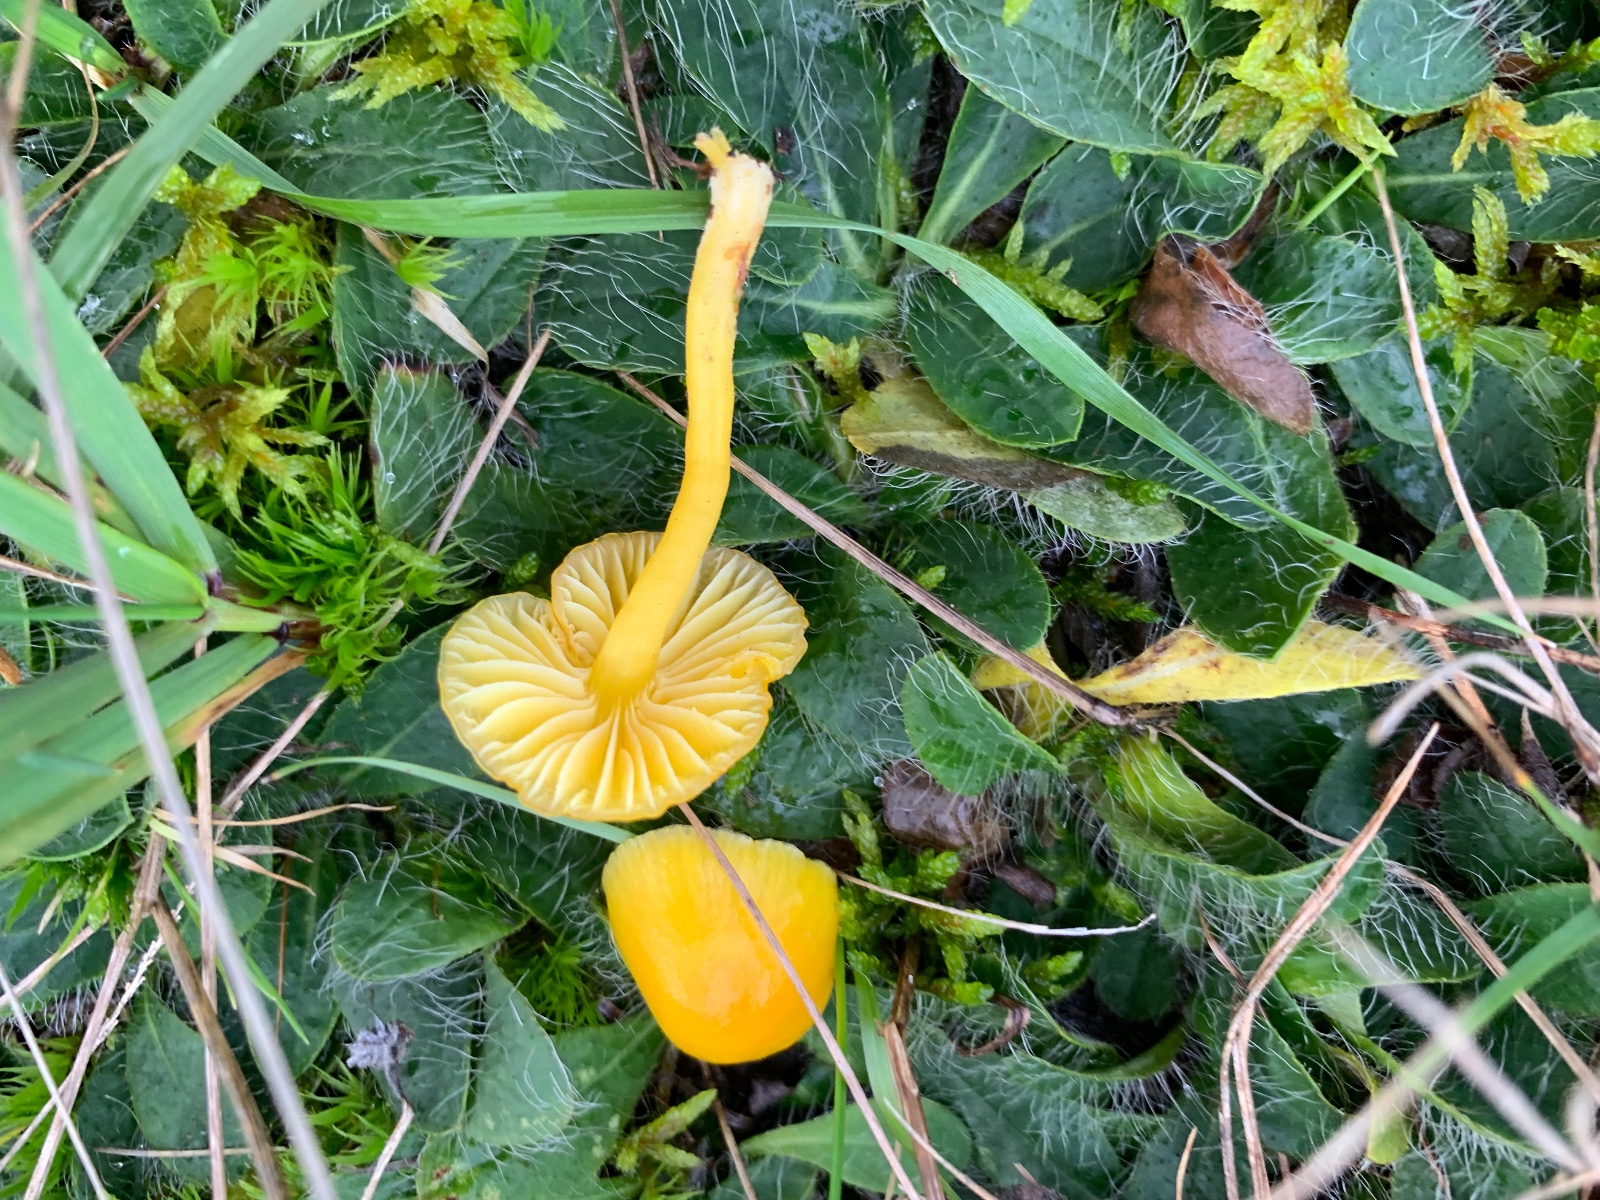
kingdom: Fungi
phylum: Basidiomycota
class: Agaricomycetes
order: Agaricales
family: Hygrophoraceae
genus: Hygrocybe
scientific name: Hygrocybe ceracea
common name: voksgul vokshat
